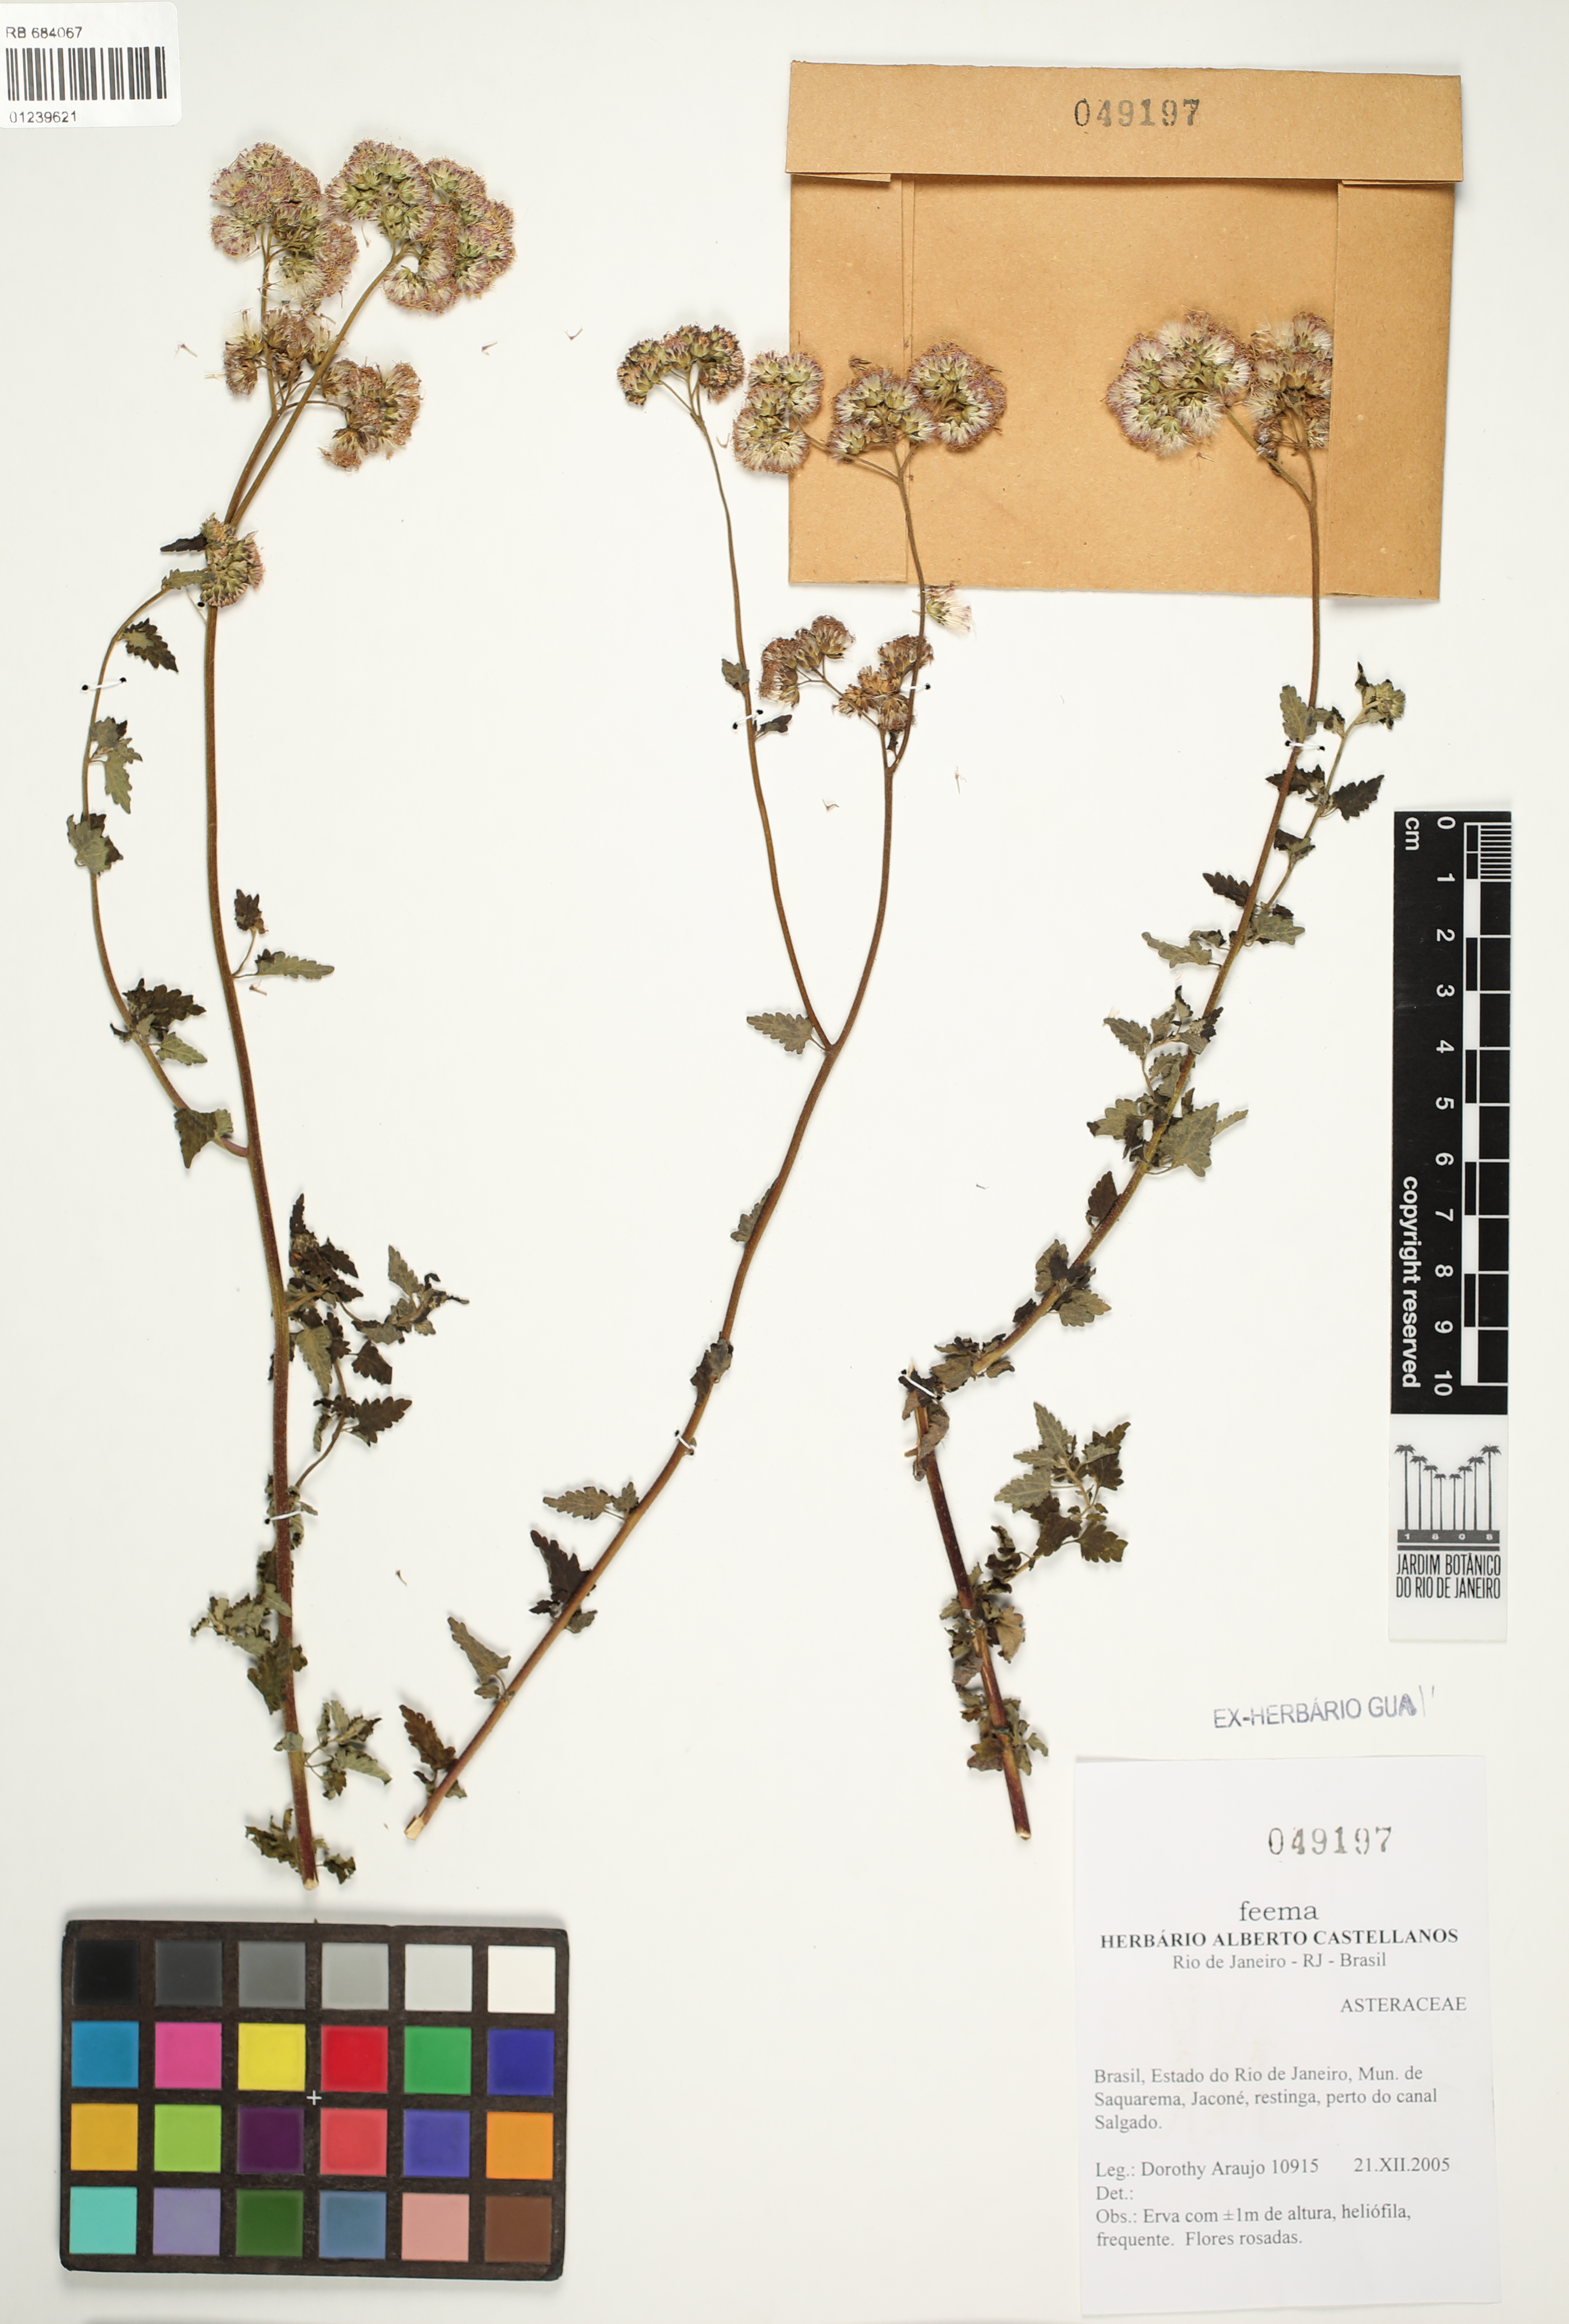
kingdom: Plantae
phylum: Tracheophyta
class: Magnoliopsida
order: Asterales
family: Asteraceae
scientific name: Asteraceae
